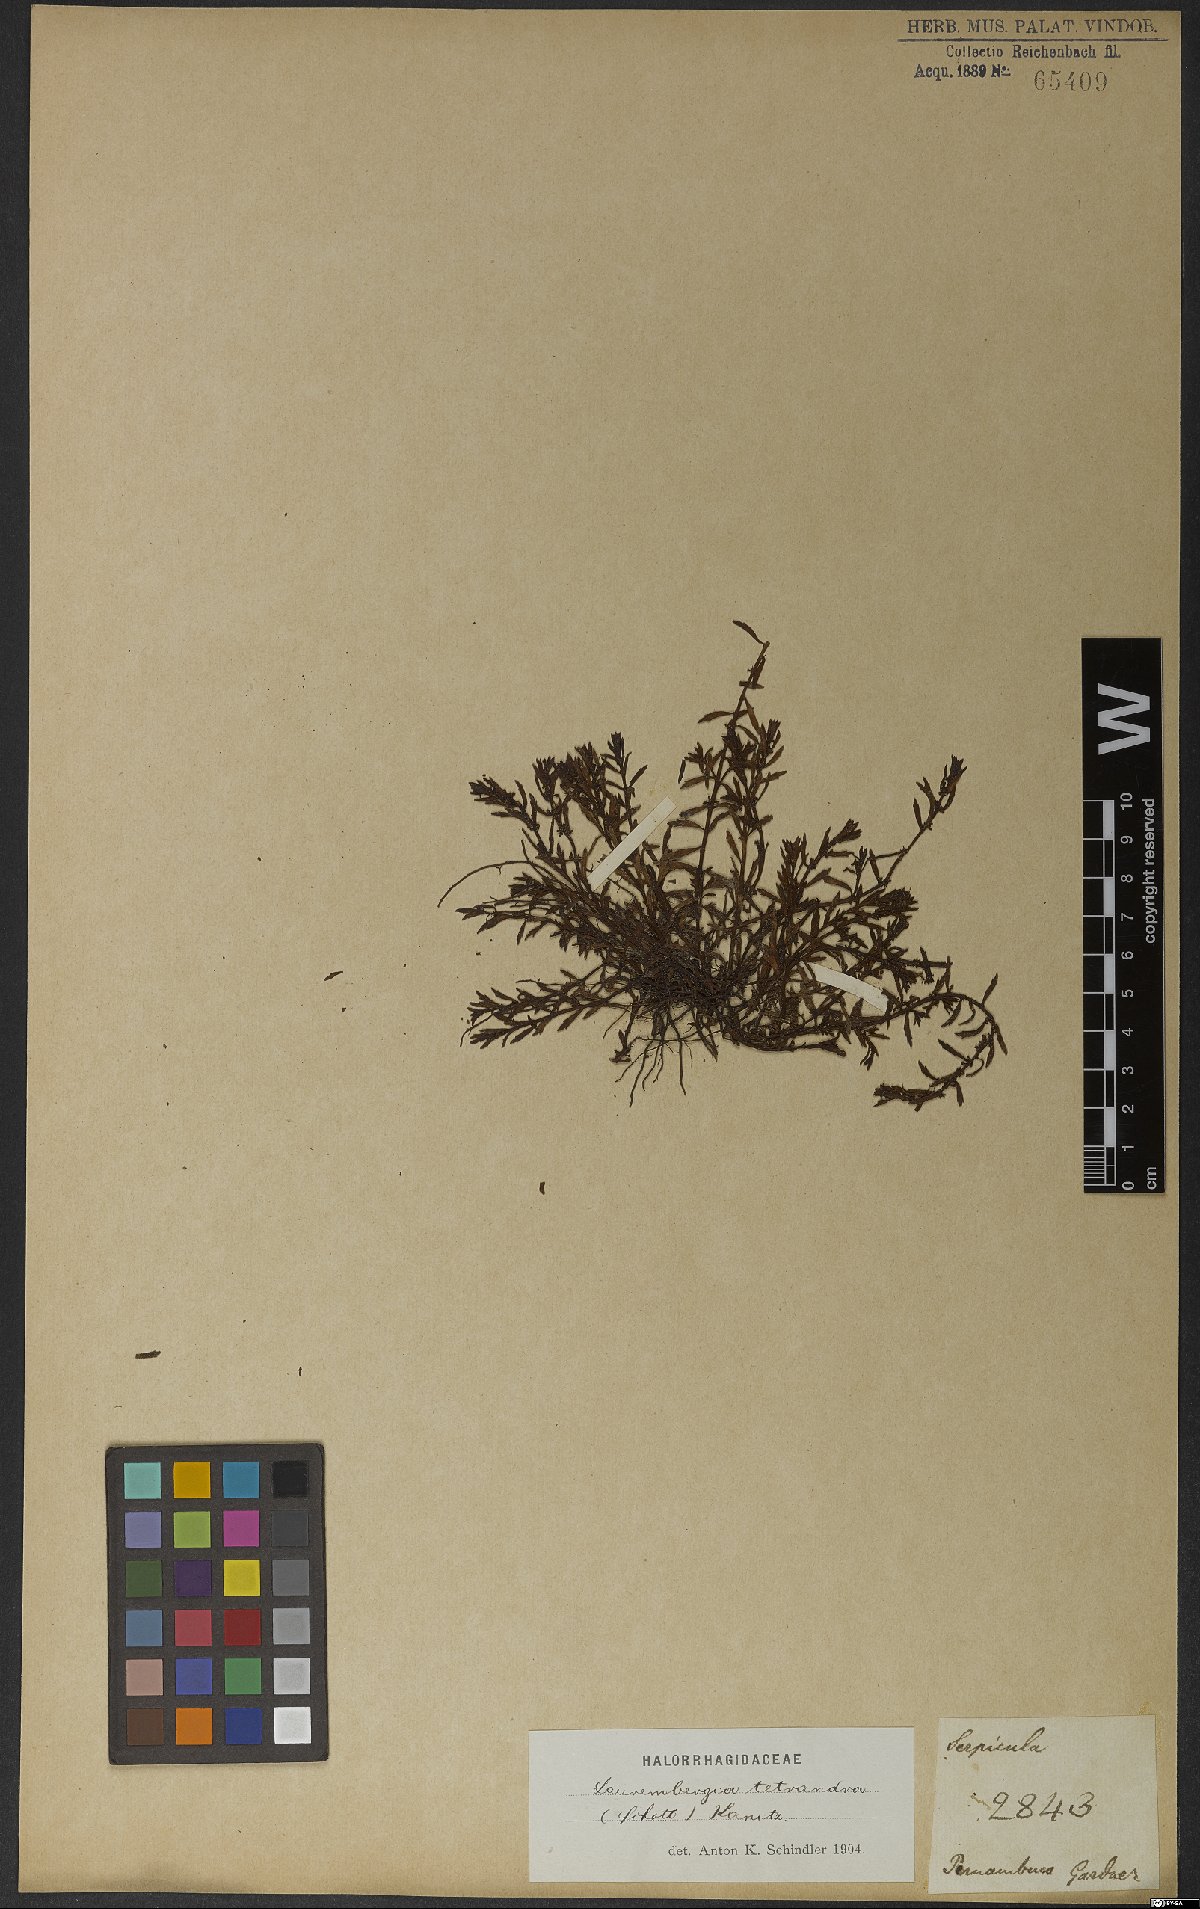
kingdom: Plantae
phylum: Tracheophyta
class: Magnoliopsida
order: Saxifragales
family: Haloragaceae
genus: Laurembergia
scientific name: Laurembergia tetrandra
